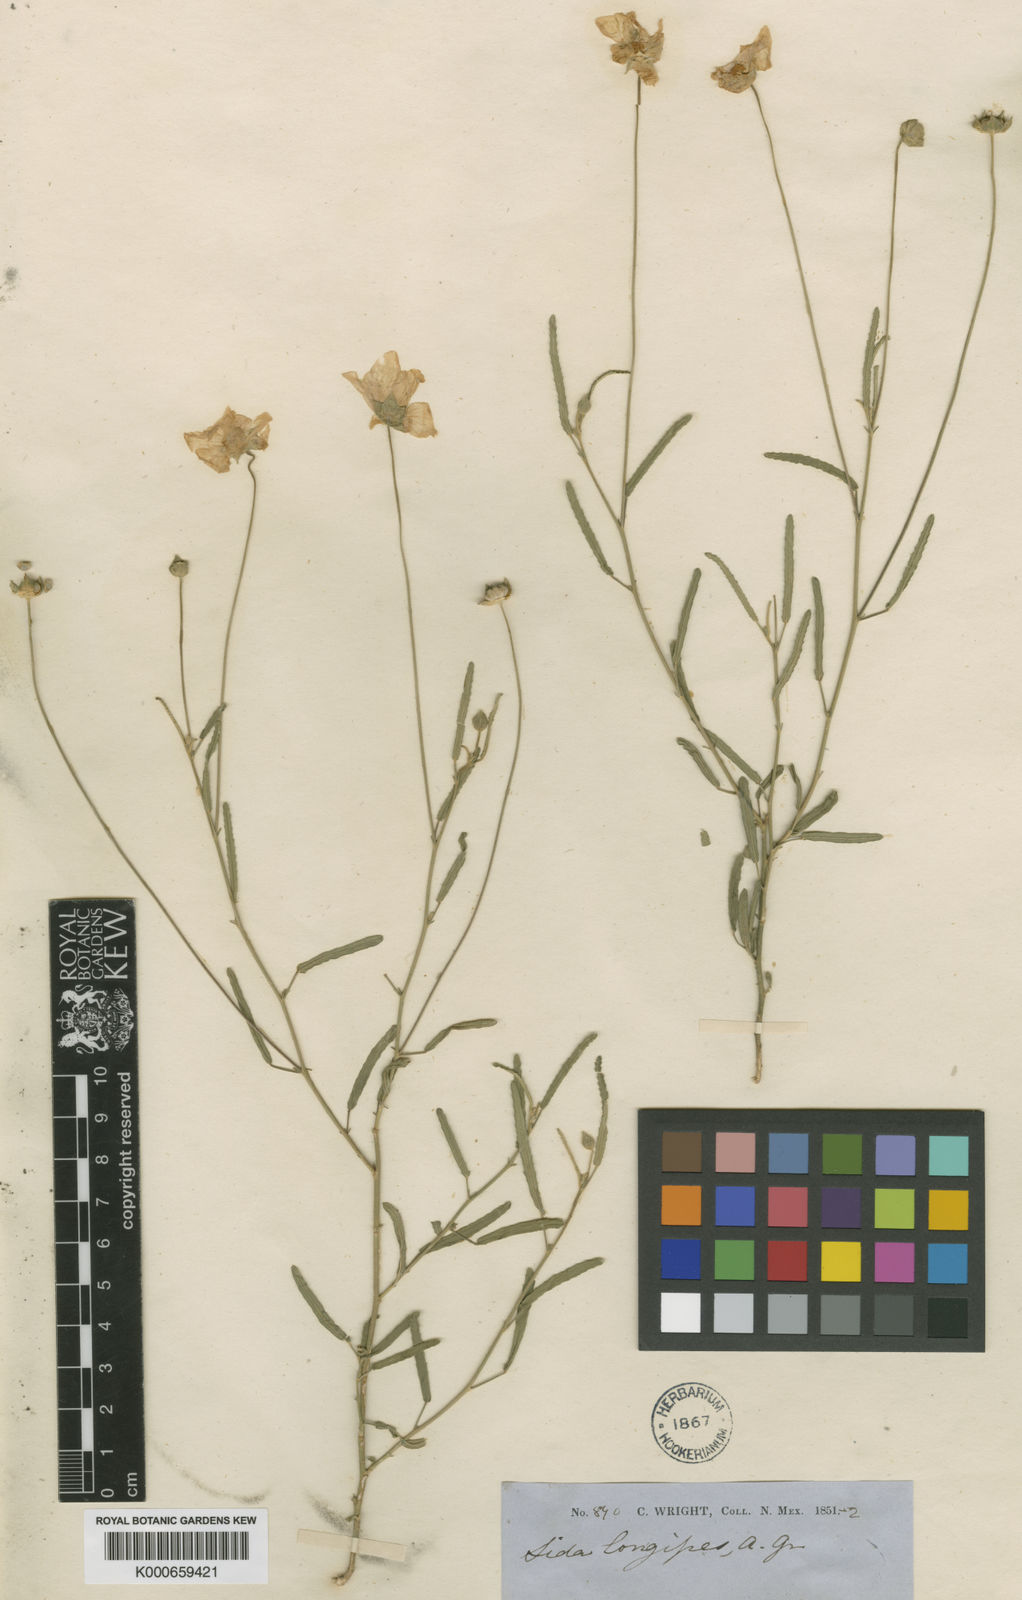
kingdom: Plantae
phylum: Tracheophyta
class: Magnoliopsida
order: Malvales
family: Malvaceae
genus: Sida
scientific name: Sida longipes
